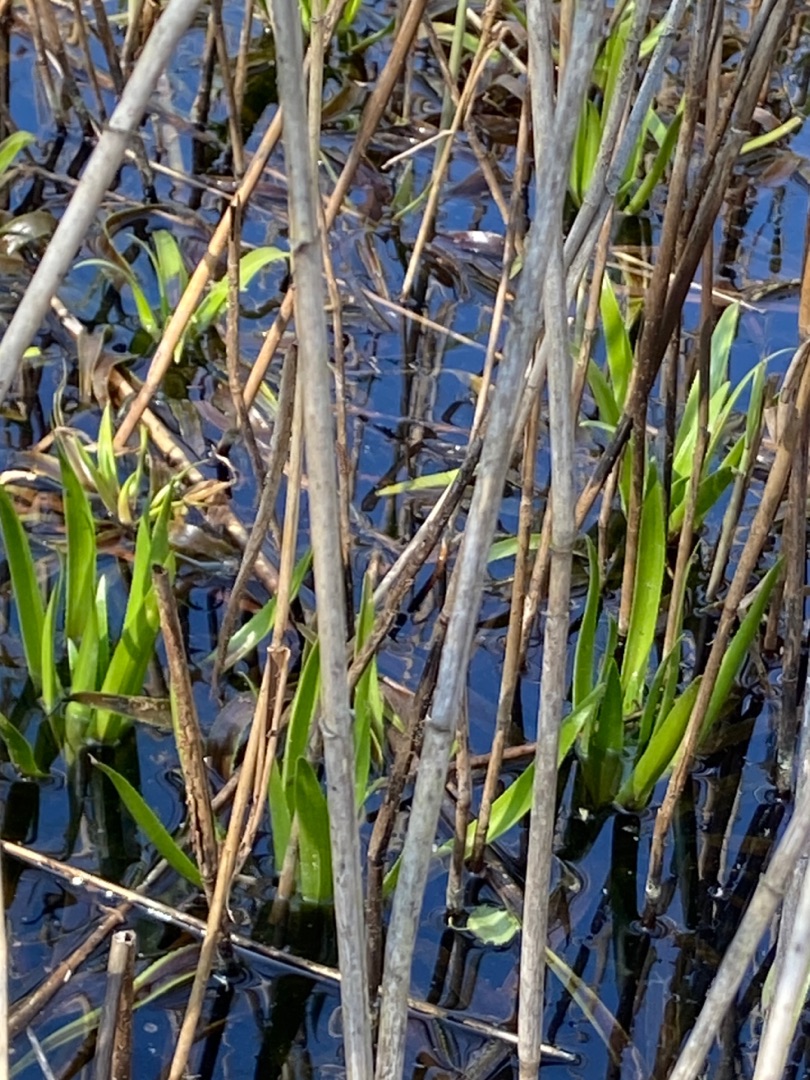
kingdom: Plantae
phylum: Tracheophyta
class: Liliopsida
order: Alismatales
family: Hydrocharitaceae
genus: Stratiotes
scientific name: Stratiotes aloides
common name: Krebseklo
